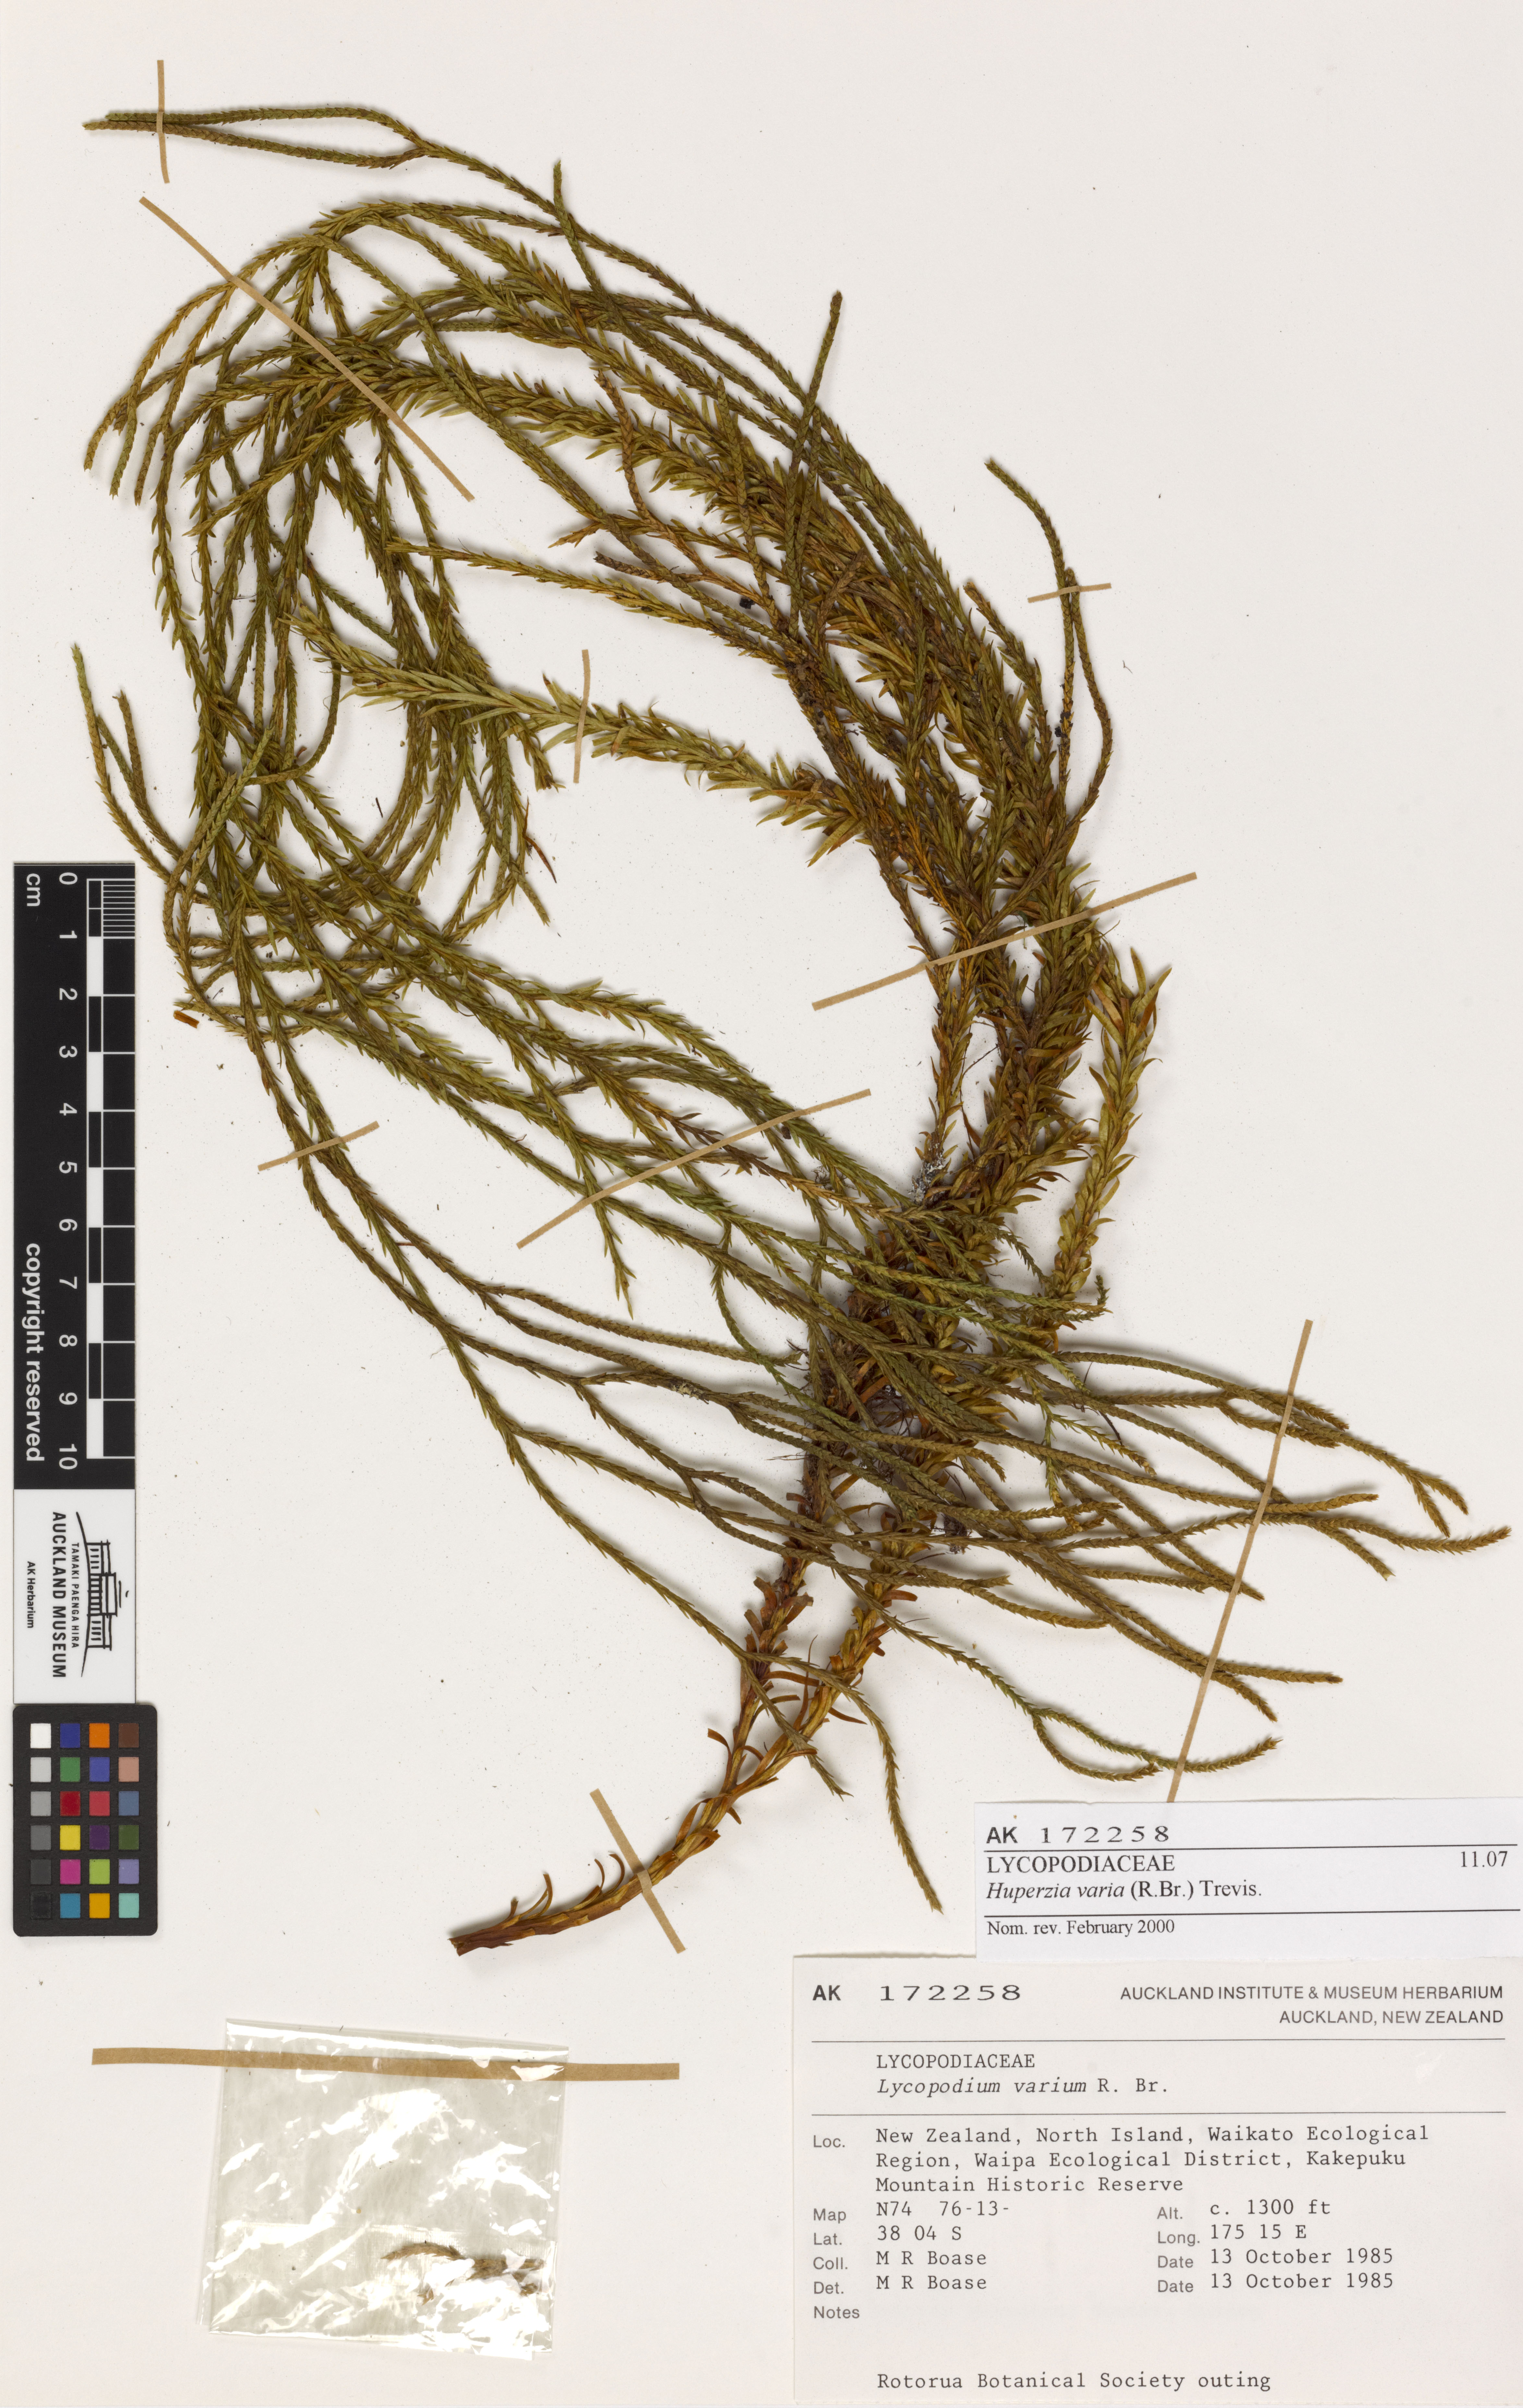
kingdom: Plantae
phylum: Tracheophyta
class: Lycopodiopsida
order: Lycopodiales
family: Lycopodiaceae
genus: Phlegmariurus
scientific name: Phlegmariurus billardierei
